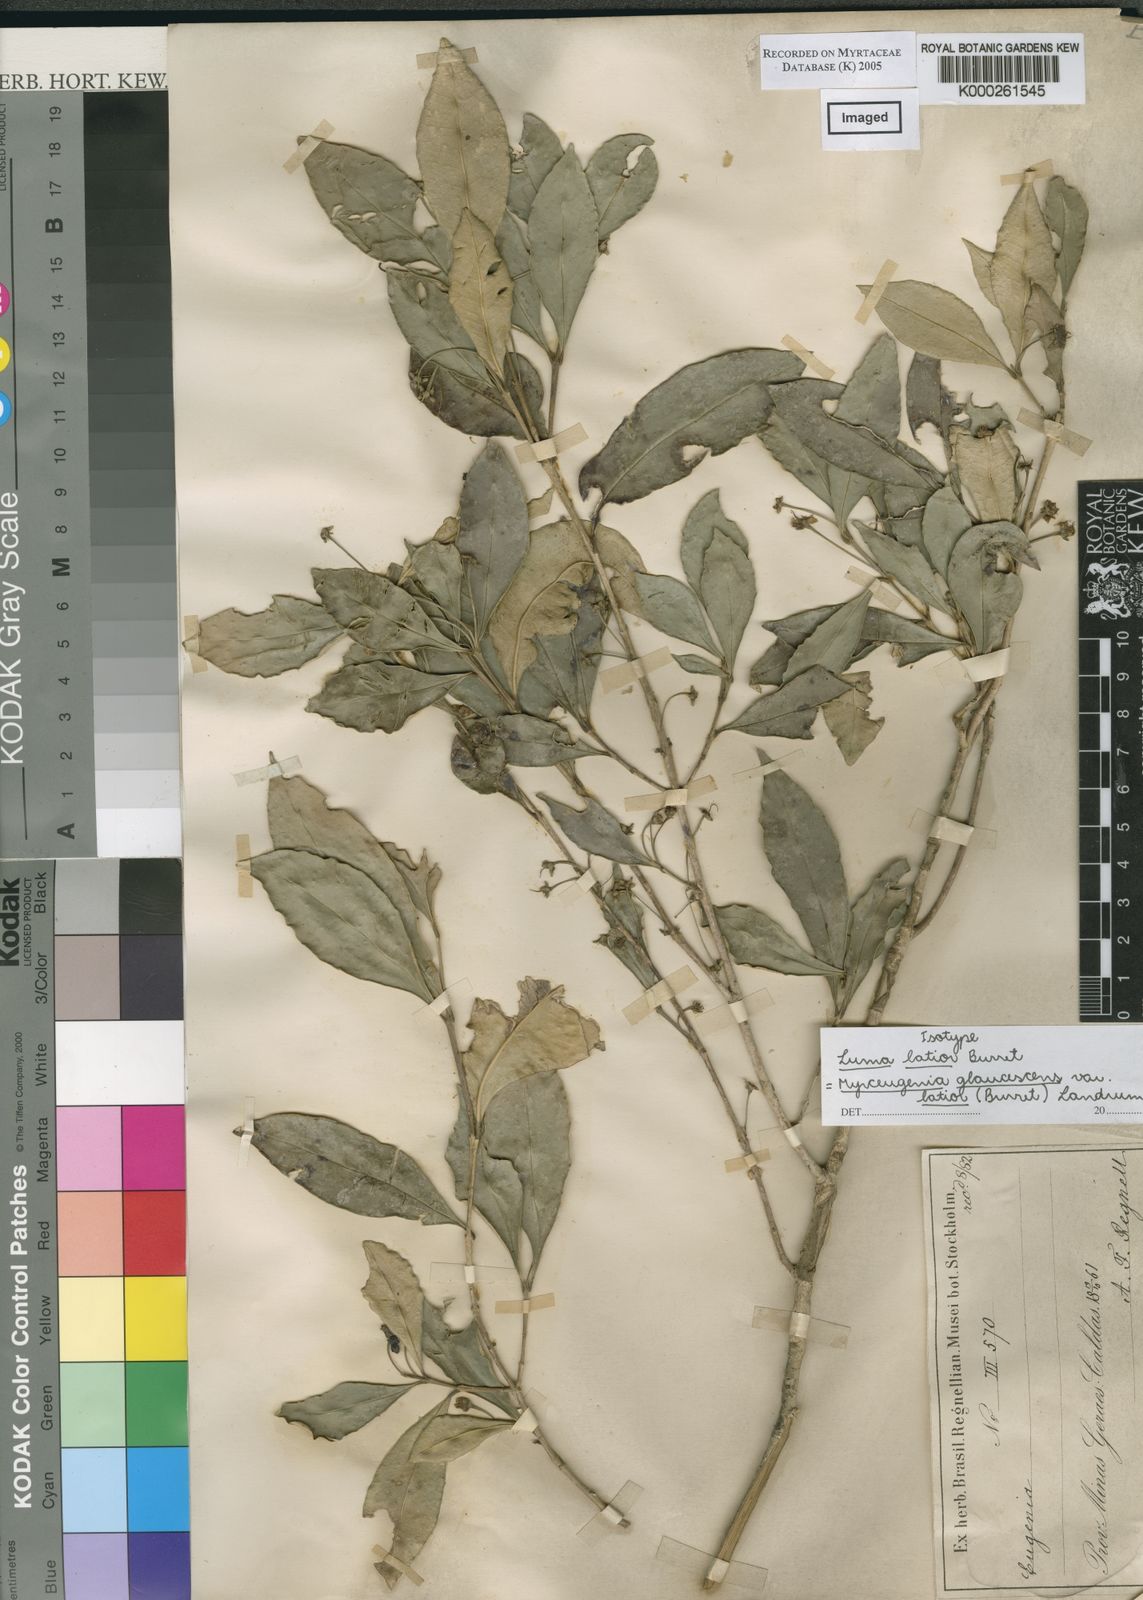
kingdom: Plantae
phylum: Tracheophyta
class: Magnoliopsida
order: Myrtales
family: Myrtaceae
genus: Myrceugenia
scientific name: Myrceugenia glaucescens
